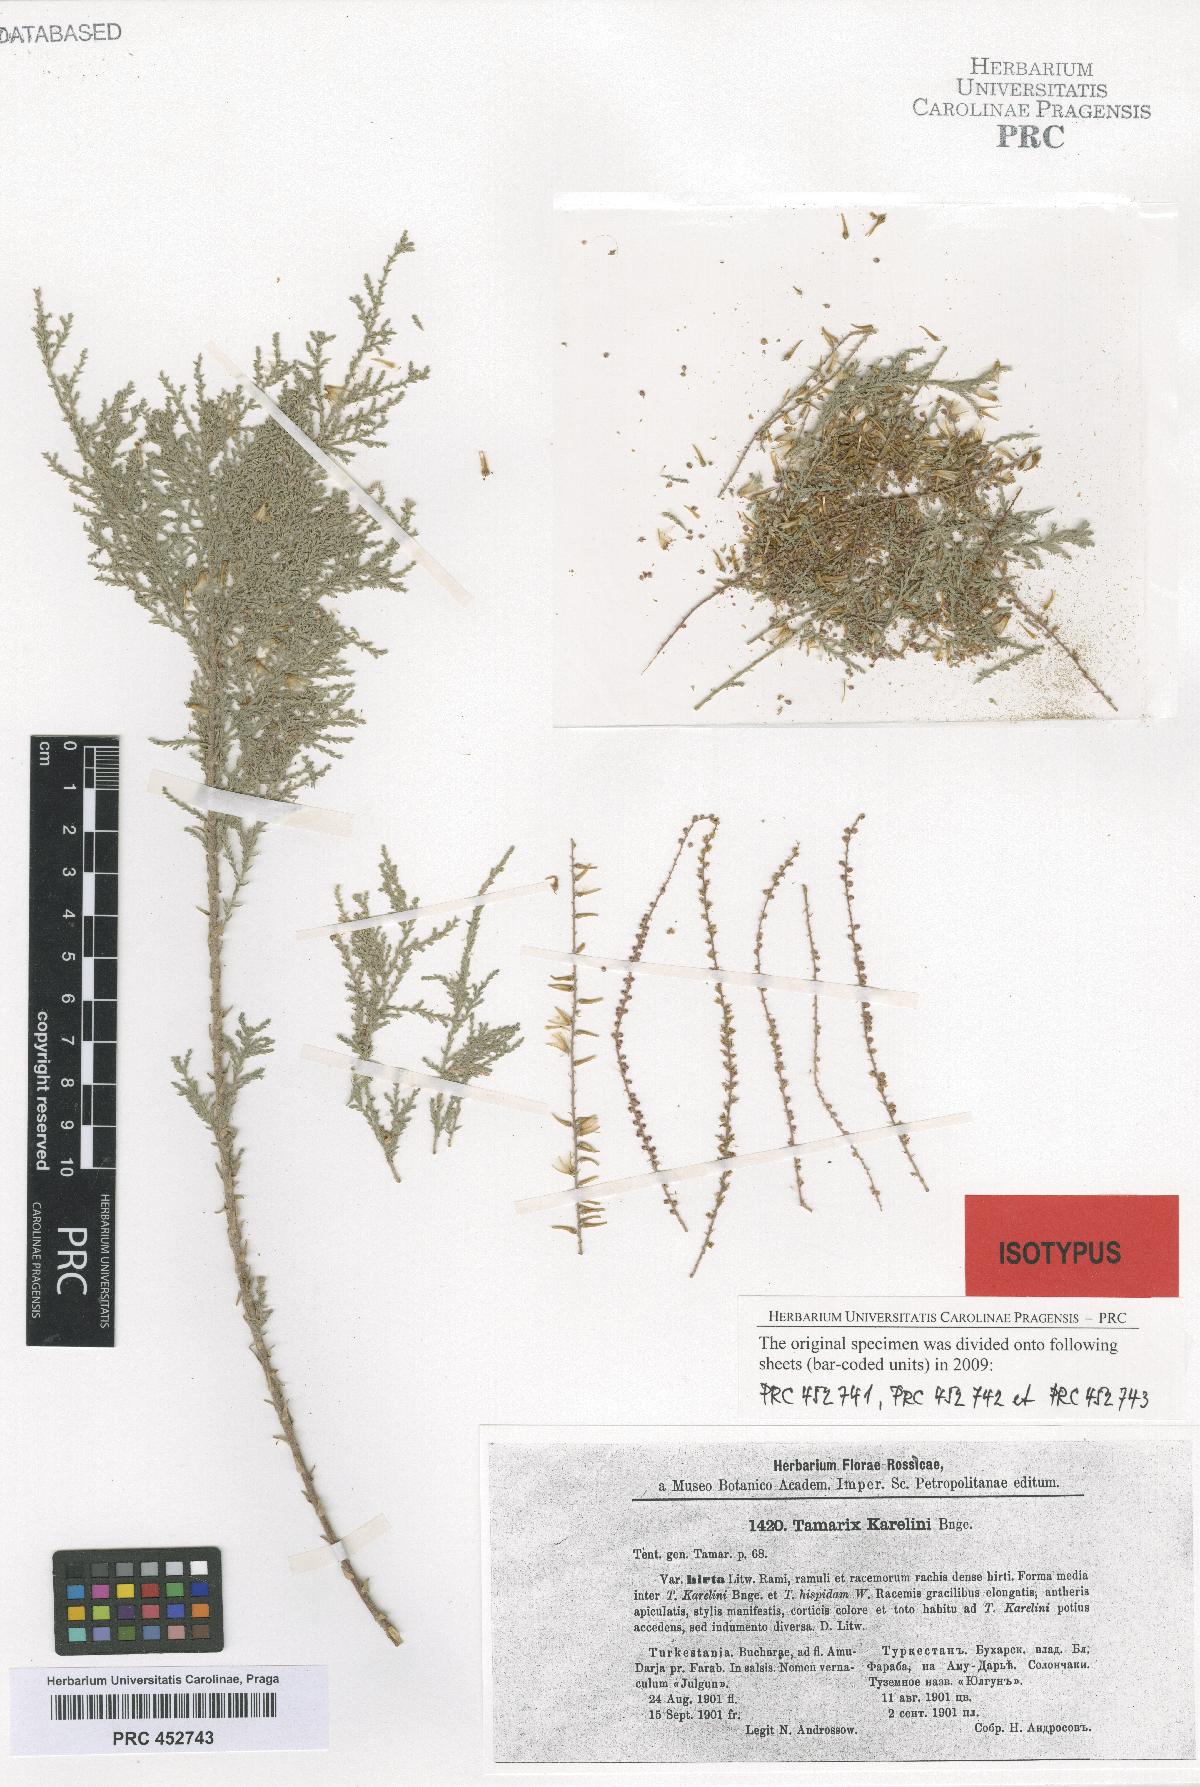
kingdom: Plantae
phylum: Tracheophyta
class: Magnoliopsida
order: Caryophyllales
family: Tamaricaceae
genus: Tamarix
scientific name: Tamarix hispida
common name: Kashgar tamarisk
